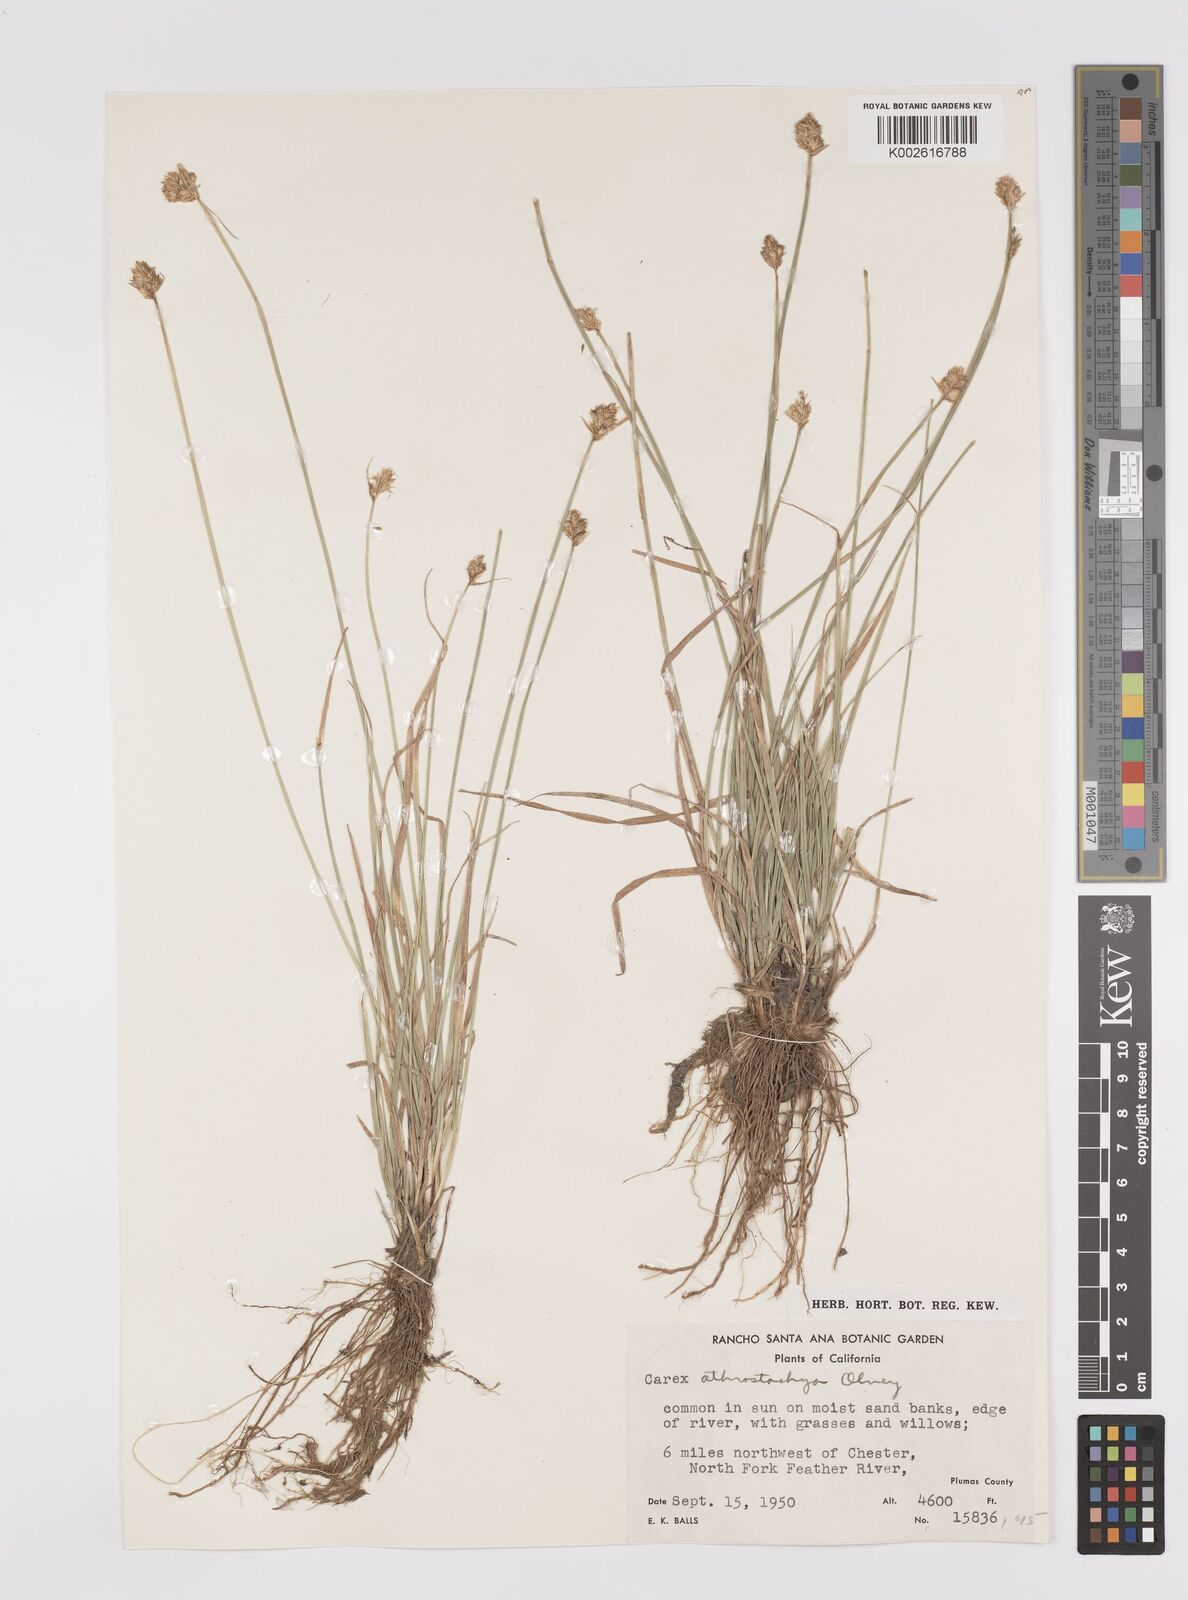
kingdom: Plantae
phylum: Tracheophyta
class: Liliopsida
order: Poales
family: Cyperaceae
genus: Carex
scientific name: Carex athrostachya
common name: Slenderbeak sedge
